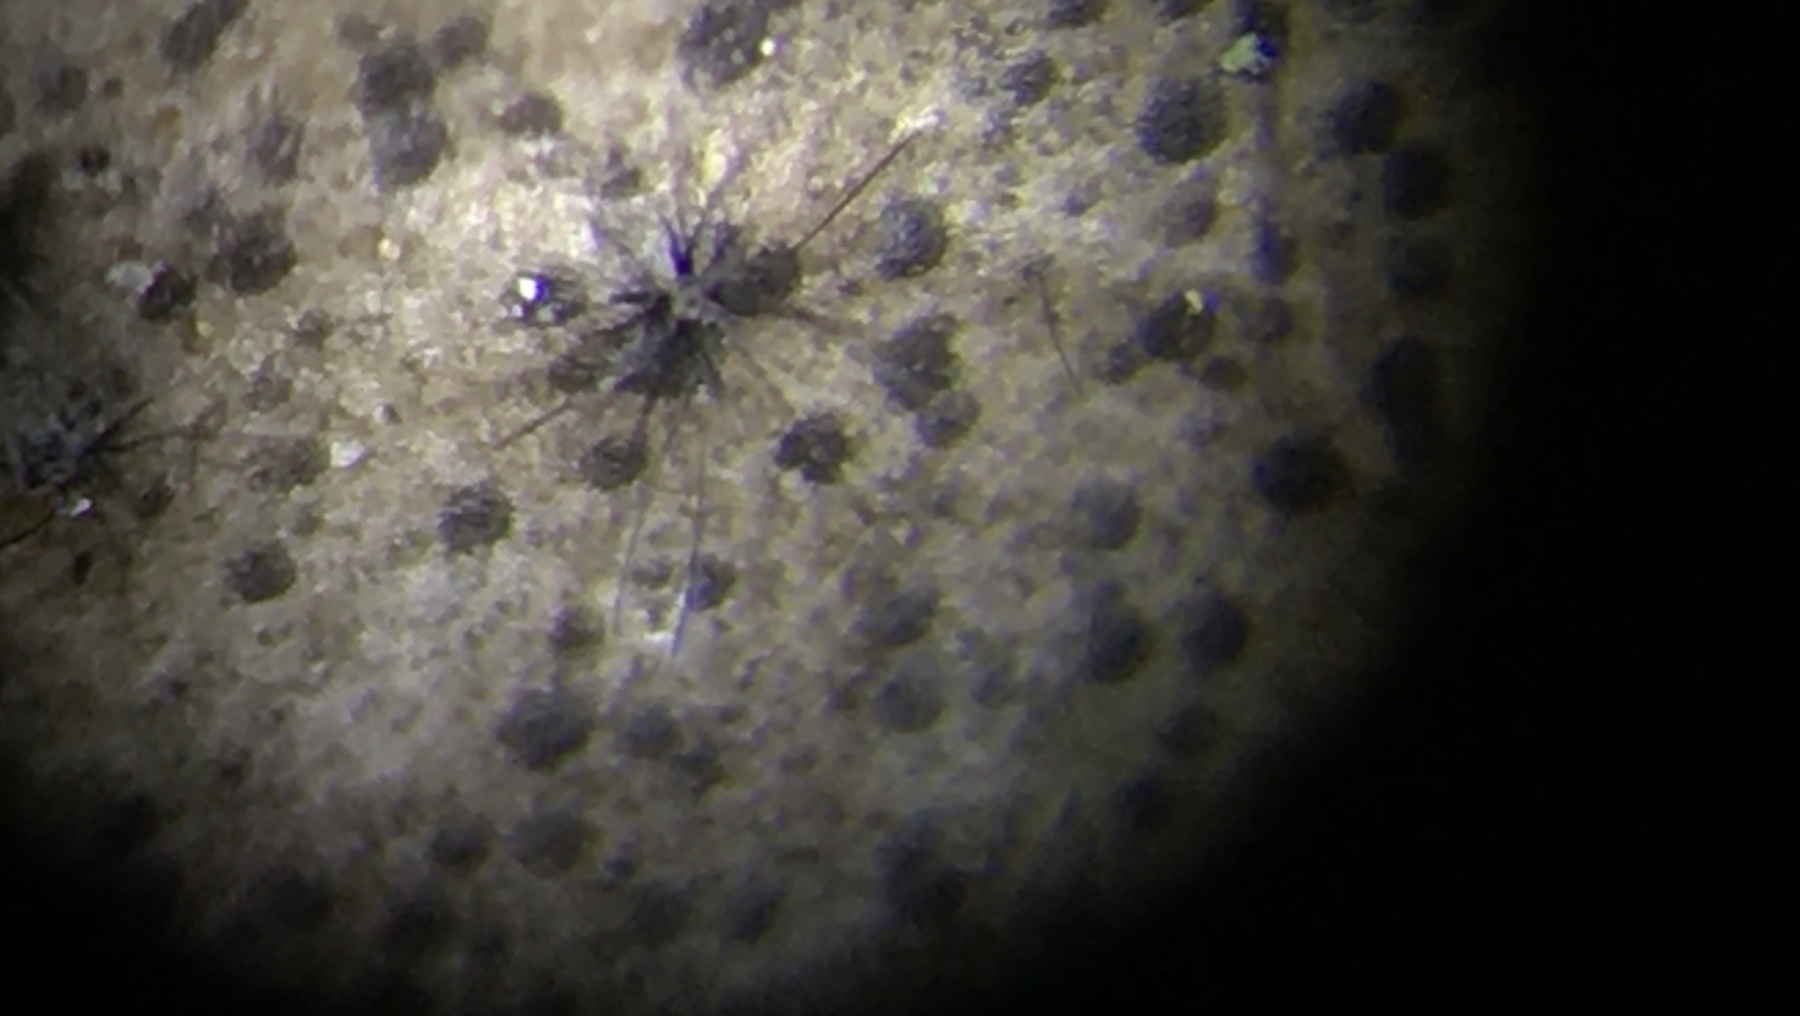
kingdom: Fungi
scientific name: Fungi
